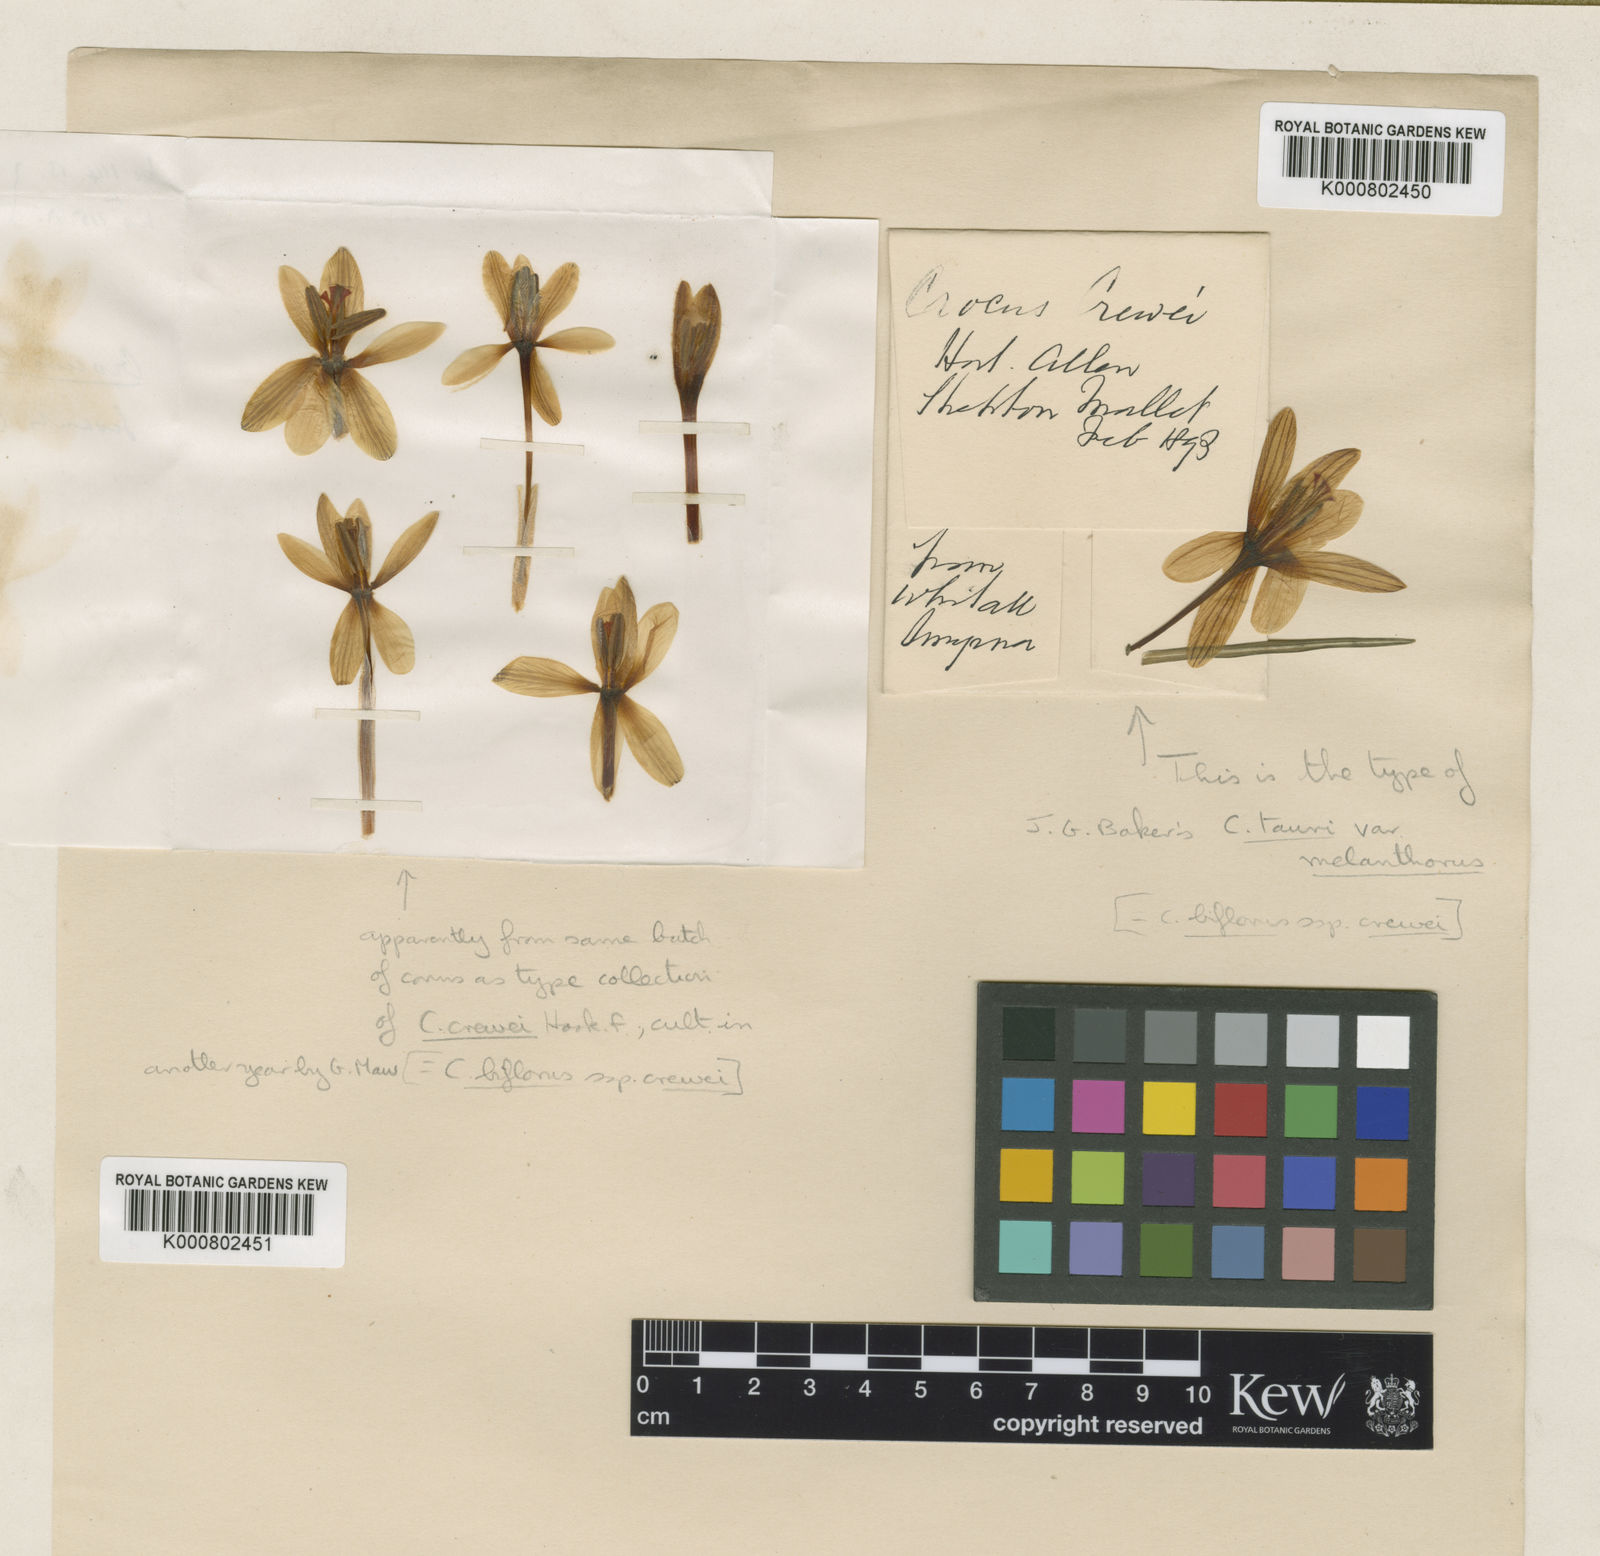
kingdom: Plantae
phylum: Tracheophyta
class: Liliopsida
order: Asparagales
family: Iridaceae
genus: Crocus
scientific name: Crocus biflorus
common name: Silvery crocus
